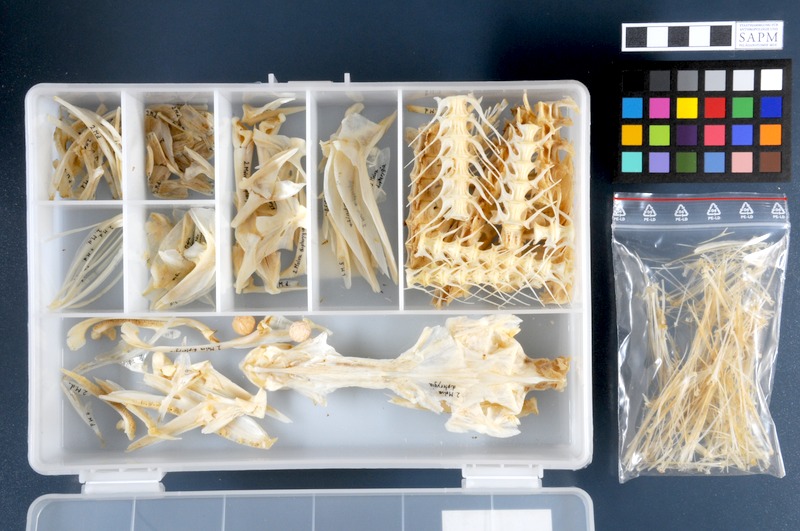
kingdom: Animalia
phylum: Chordata
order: Gadiformes
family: Lotidae
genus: Molva
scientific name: Molva dypterygia
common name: Blue ling
